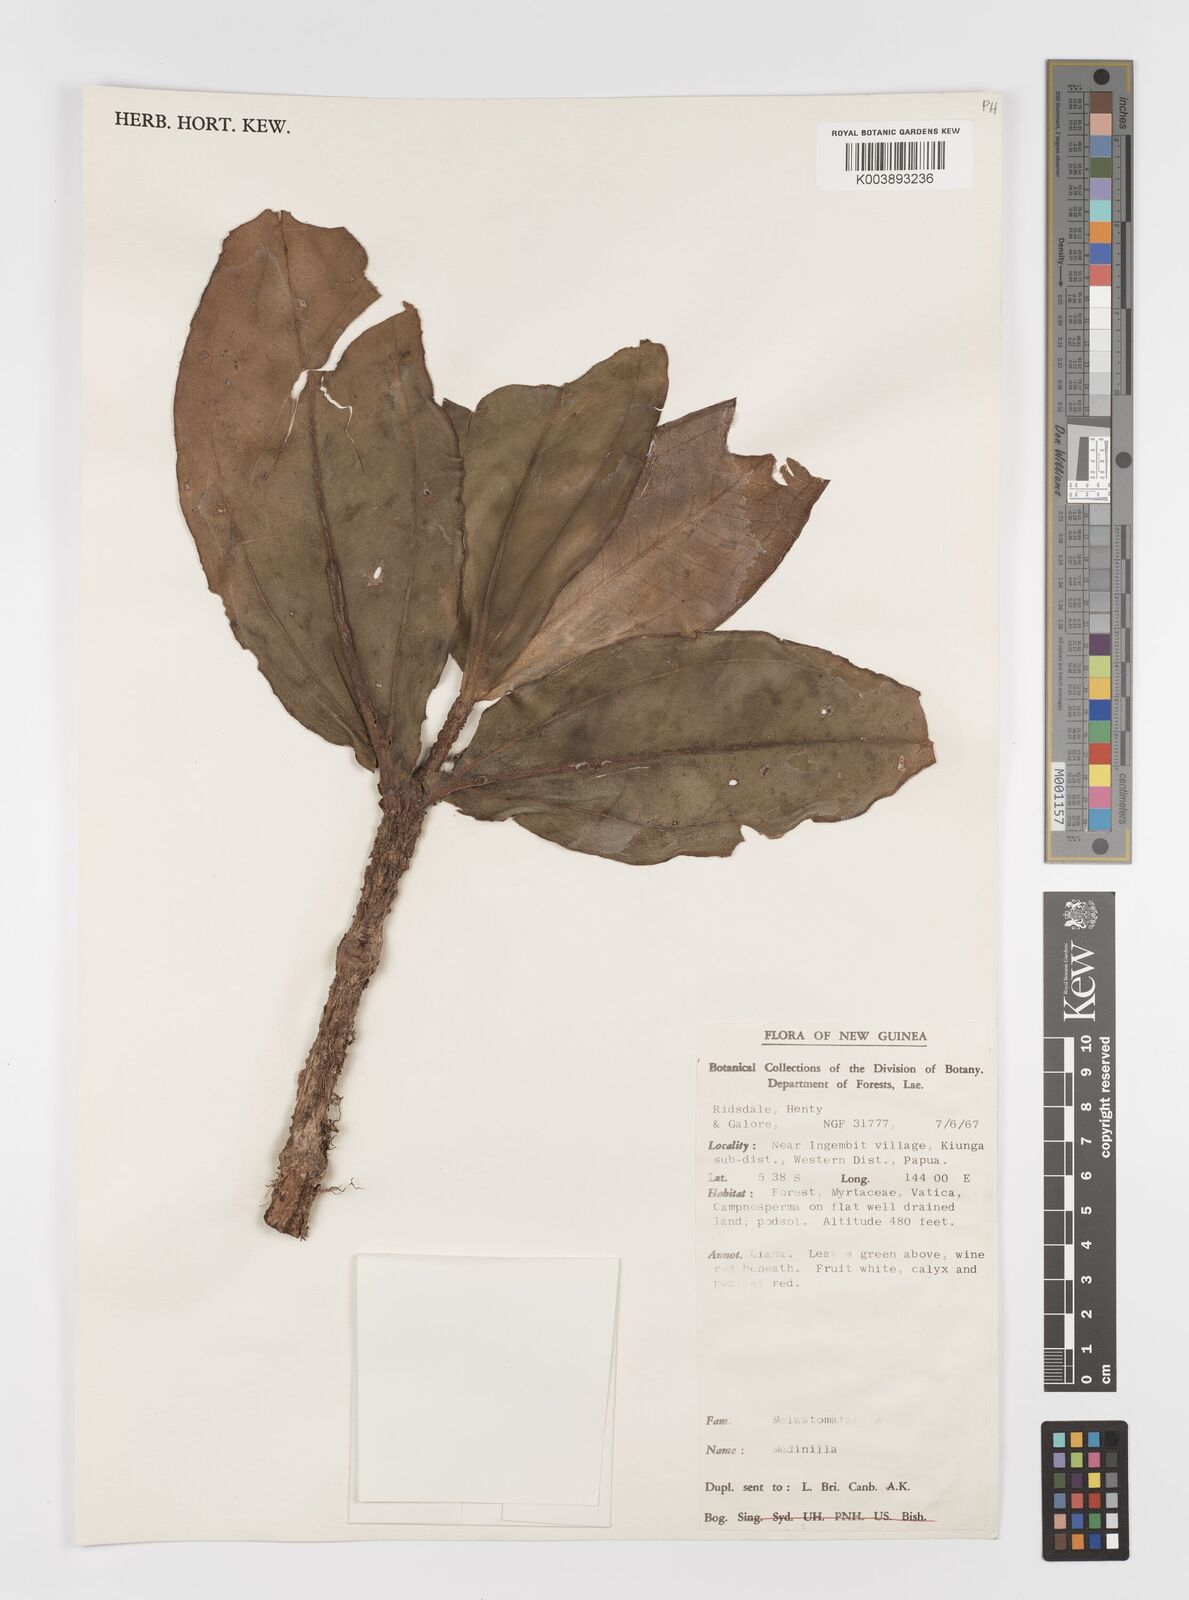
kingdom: Plantae
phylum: Tracheophyta
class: Magnoliopsida
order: Myrtales
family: Melastomataceae
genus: Medinilla
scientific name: Medinilla
